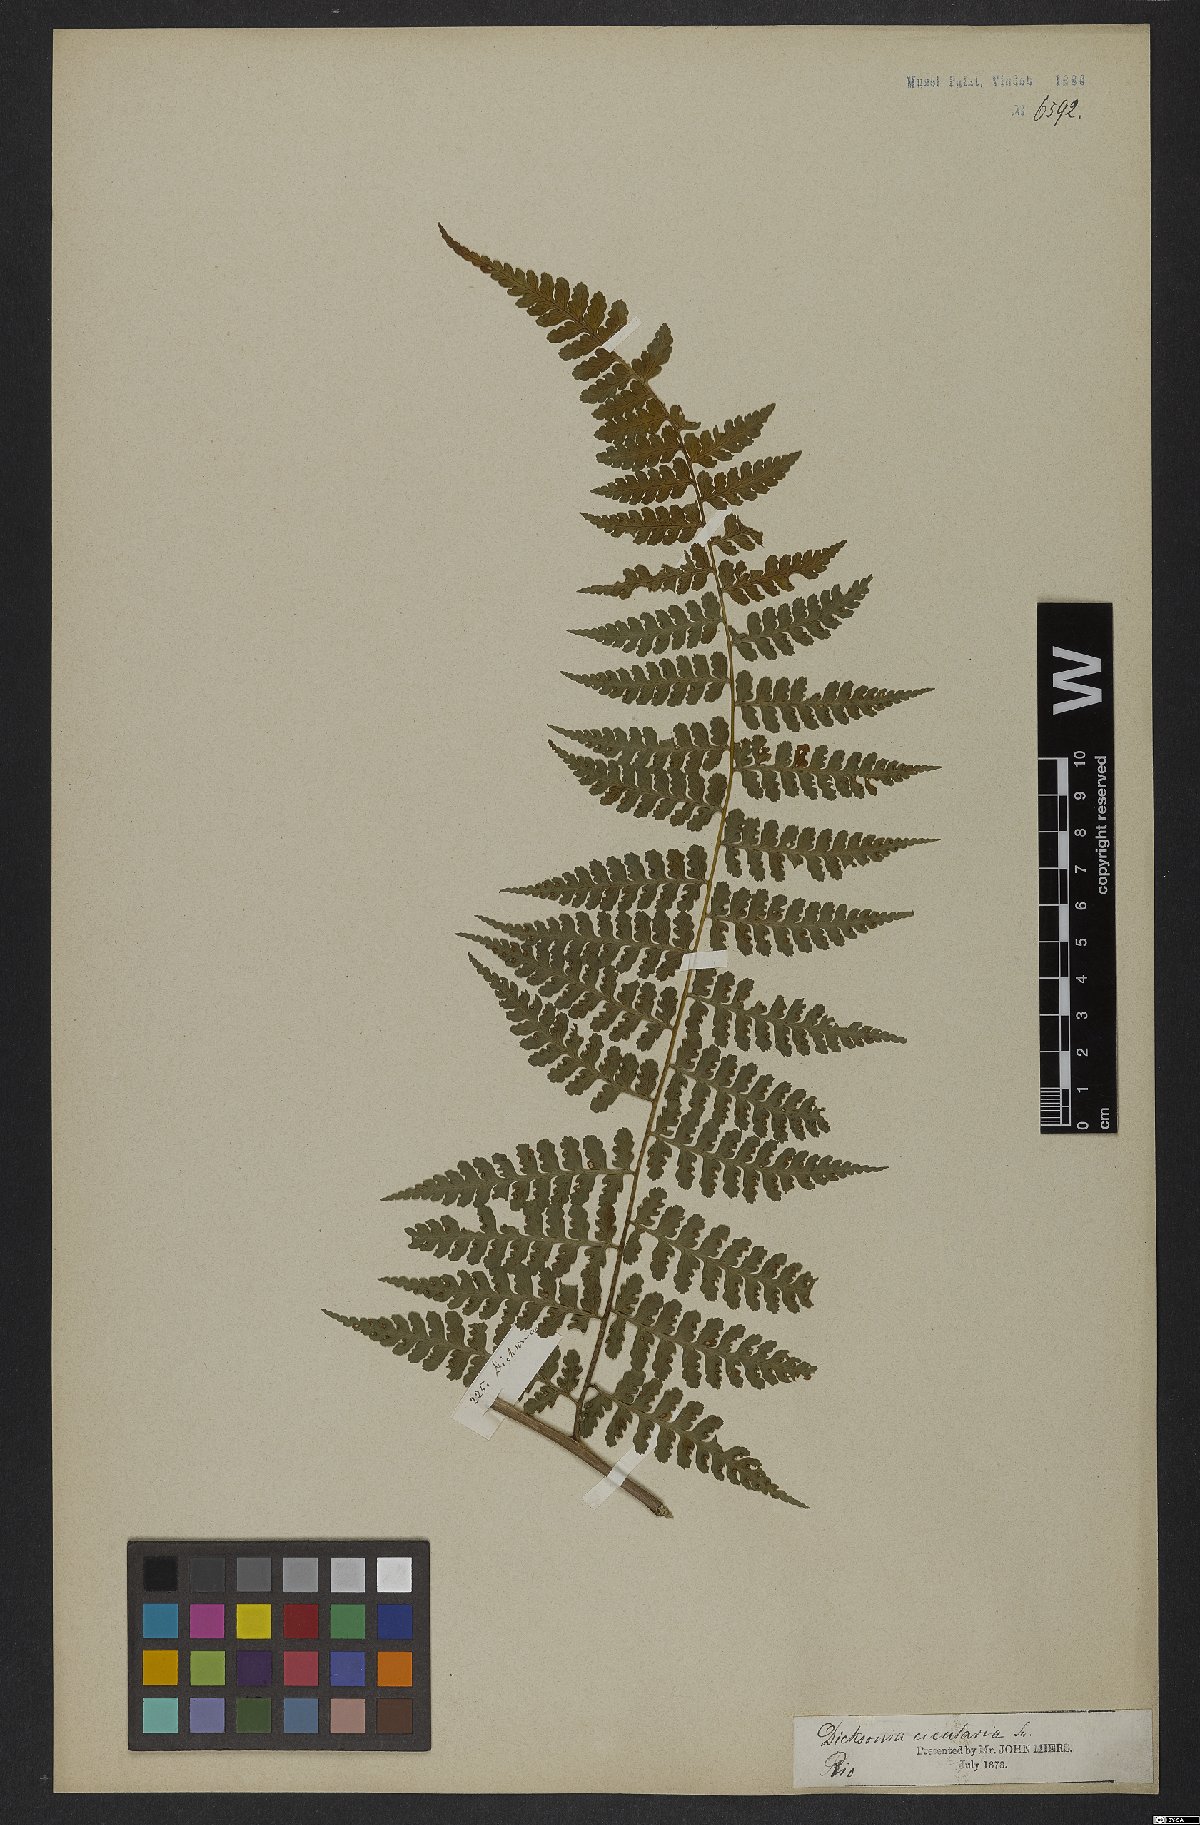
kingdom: Plantae
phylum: Tracheophyta
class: Polypodiopsida
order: Polypodiales
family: Dennstaedtiaceae
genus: Dennstaedtia
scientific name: Dennstaedtia cicutaria
